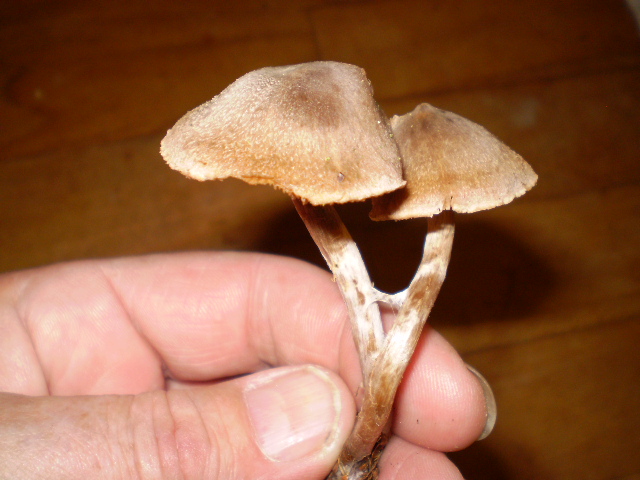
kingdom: Fungi
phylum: Basidiomycota
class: Agaricomycetes
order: Agaricales
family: Cortinariaceae
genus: Cortinarius
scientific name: Cortinarius hemitrichus
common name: hvidfnugget slørhat
